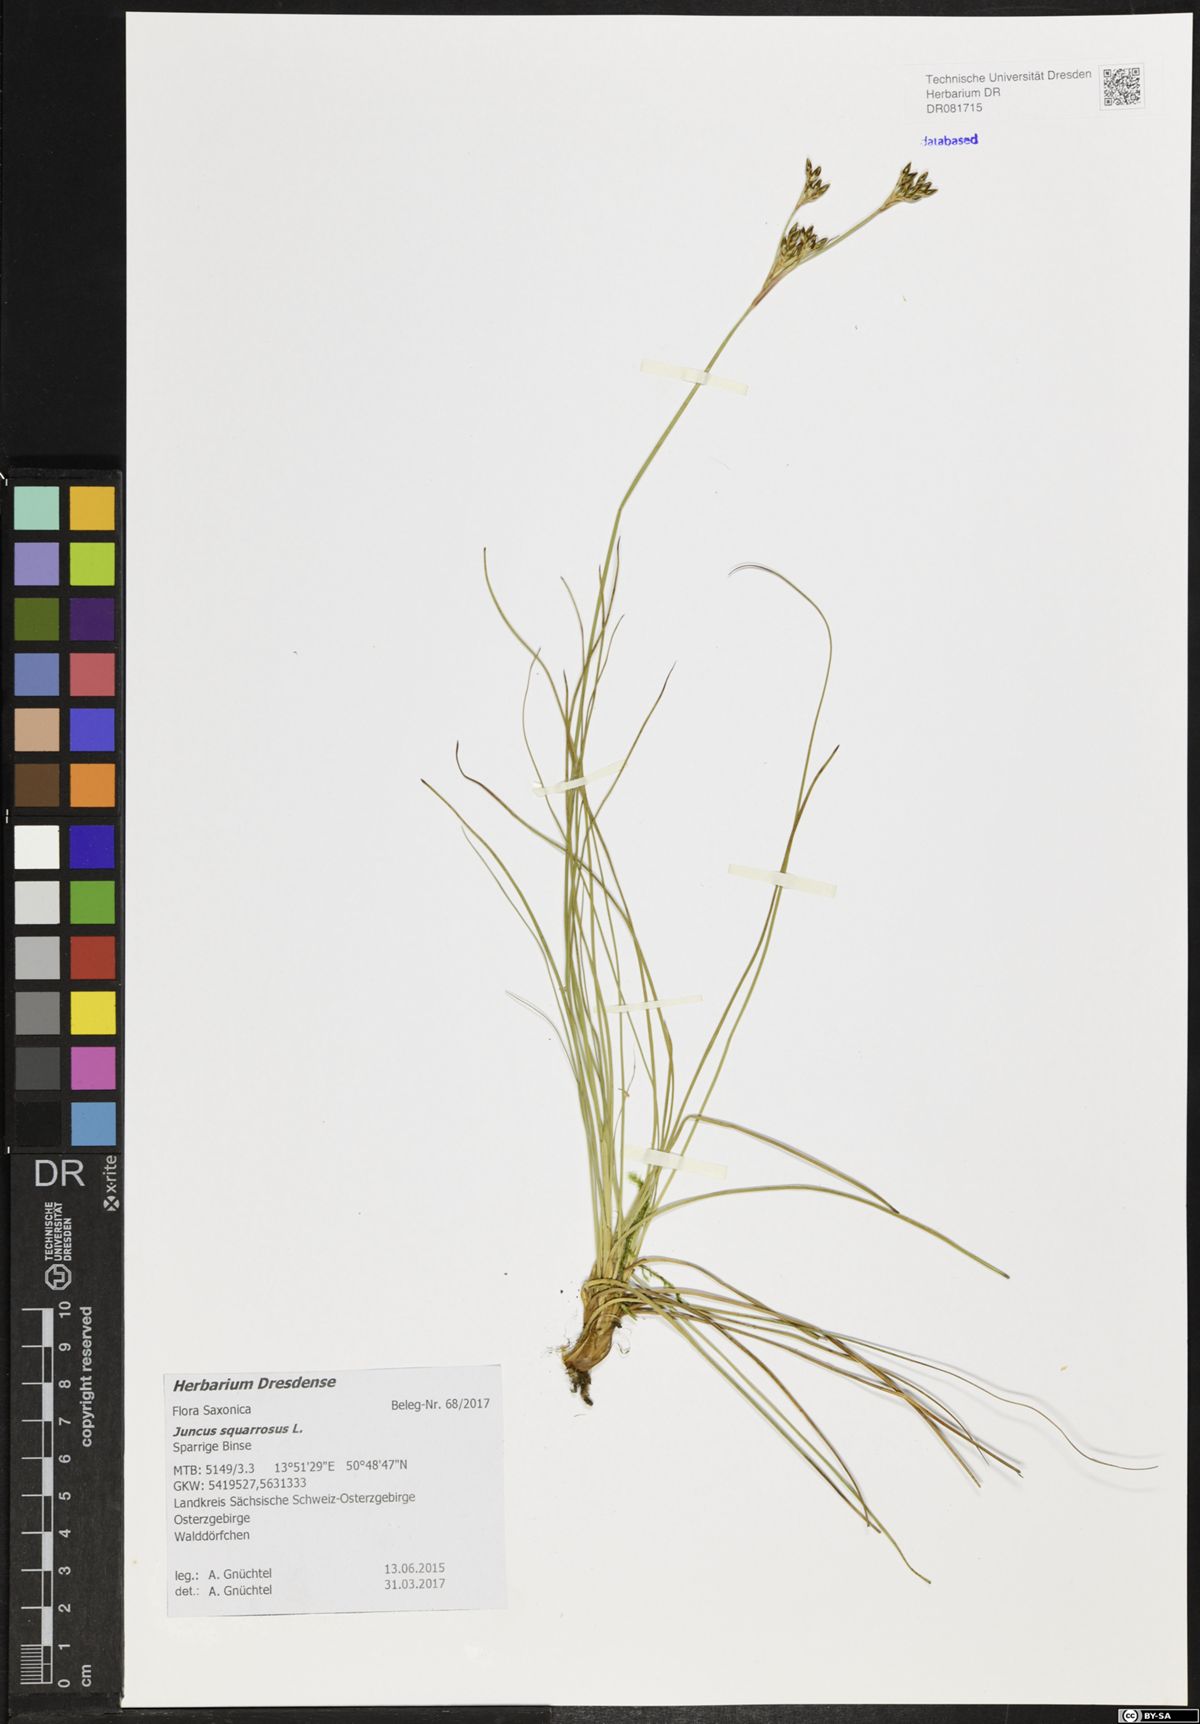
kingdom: Plantae
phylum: Tracheophyta
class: Liliopsida
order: Poales
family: Juncaceae
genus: Juncus
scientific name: Juncus squarrosus
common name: Heath rush
